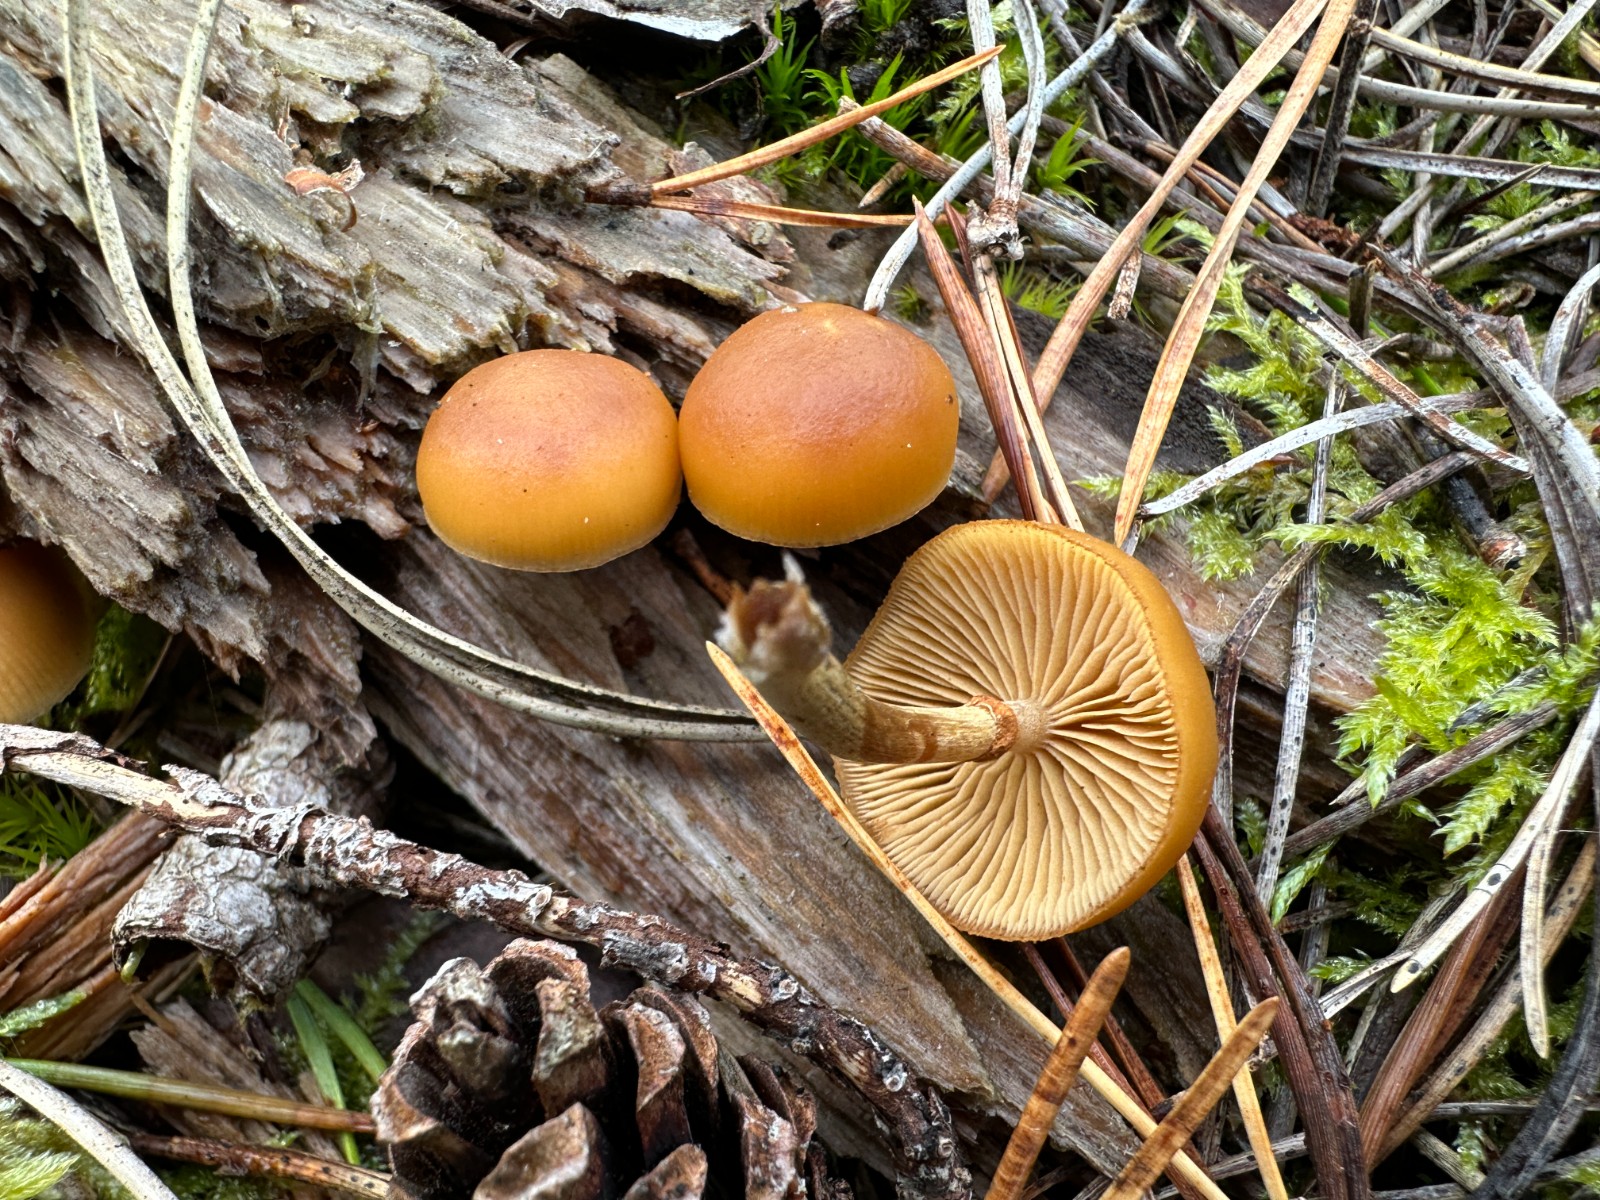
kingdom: Fungi
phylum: Basidiomycota
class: Agaricomycetes
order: Agaricales
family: Hymenogastraceae
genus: Galerina
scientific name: Galerina marginata
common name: randbæltet hjelmhat
